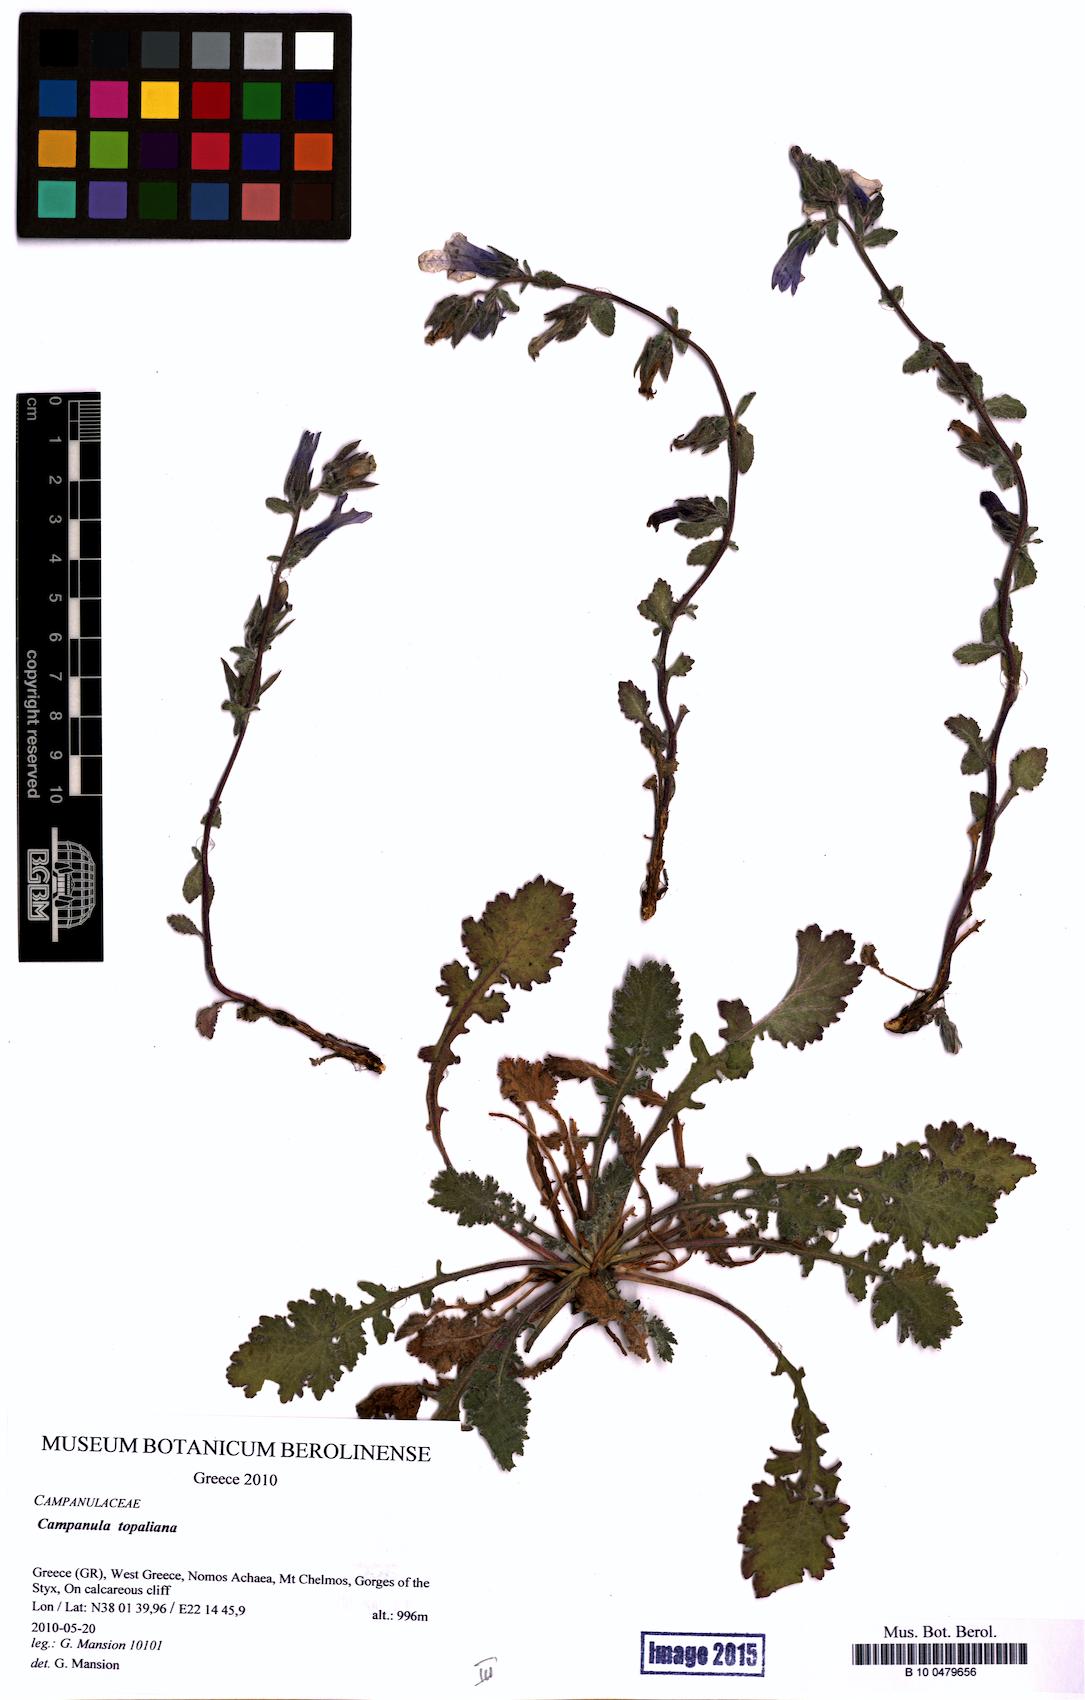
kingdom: Plantae
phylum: Tracheophyta
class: Magnoliopsida
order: Asterales
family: Campanulaceae
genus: Campanula
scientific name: Campanula topaliana
